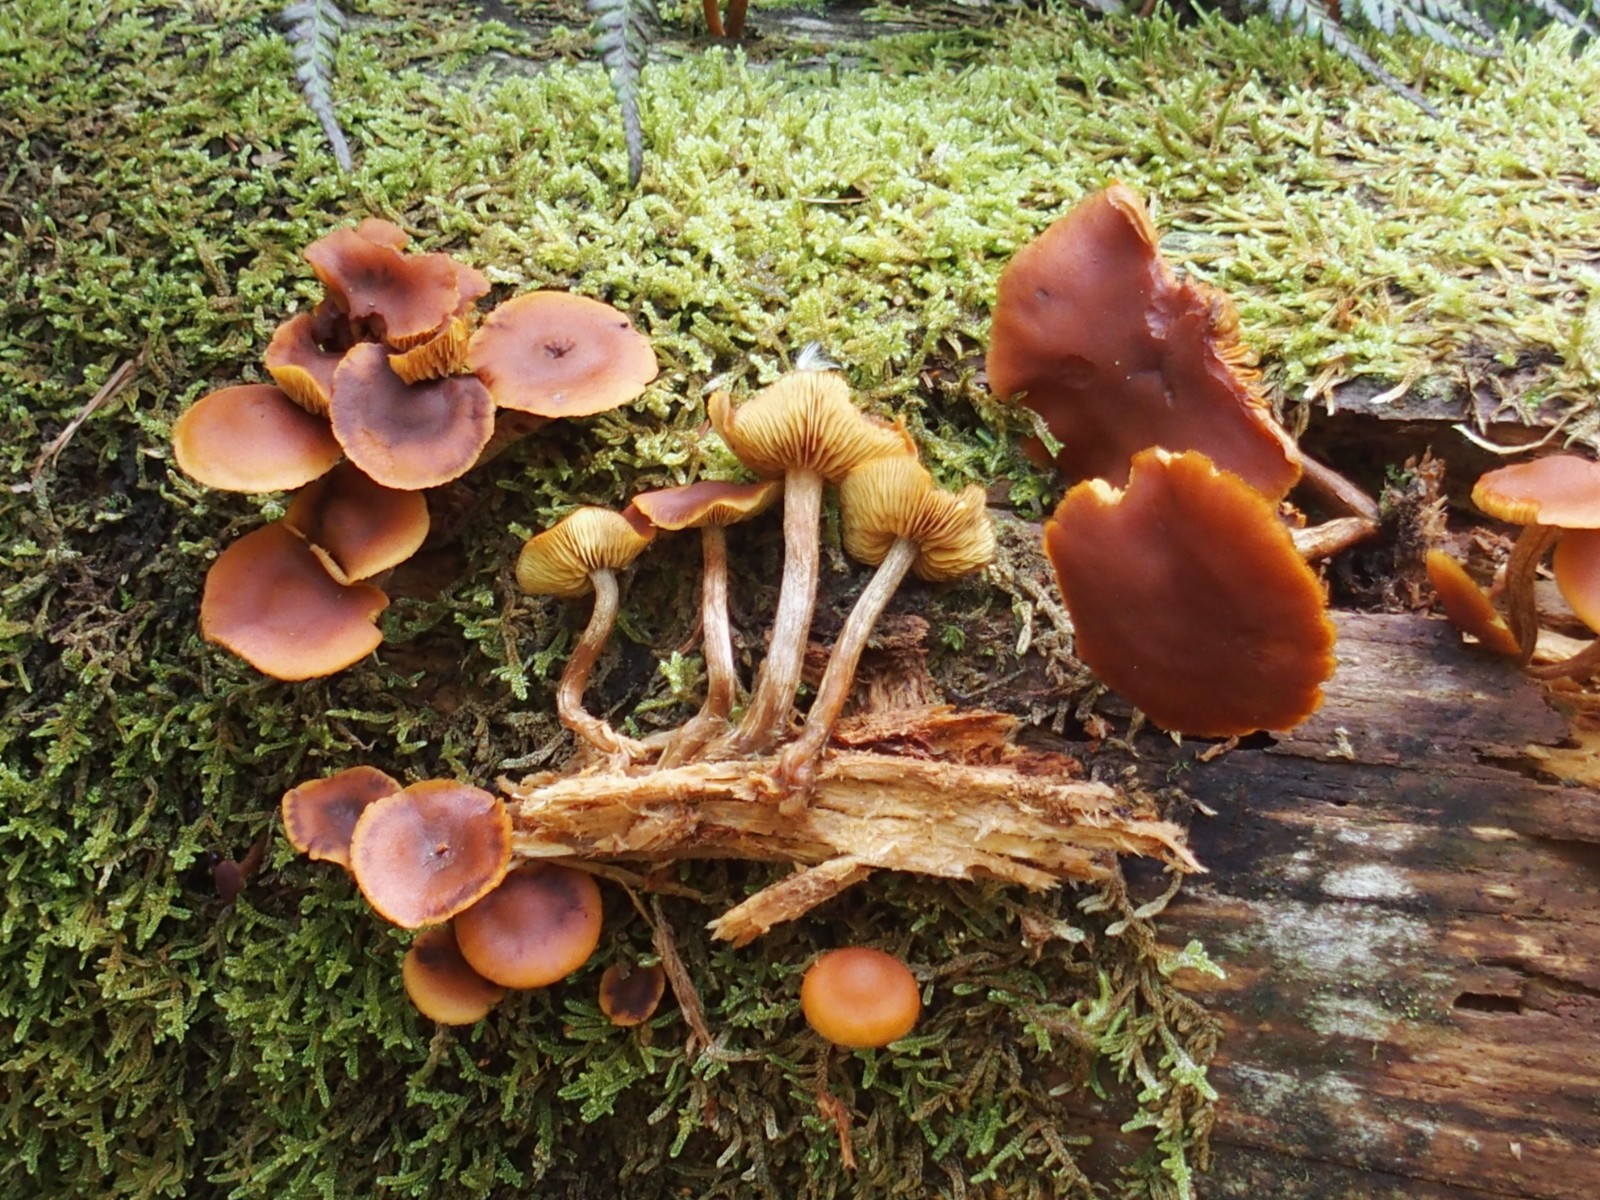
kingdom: Fungi
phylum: Basidiomycota
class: Agaricomycetes
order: Agaricales
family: Hymenogastraceae
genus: Gymnopilus
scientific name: Gymnopilus picreus
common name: puklet flammehat
